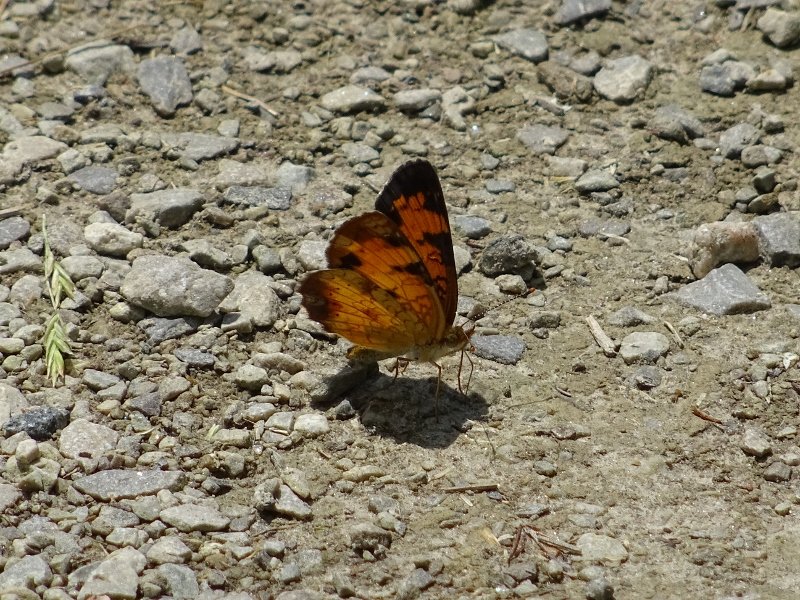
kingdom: Animalia
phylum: Arthropoda
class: Insecta
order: Lepidoptera
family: Nymphalidae
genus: Phyciodes
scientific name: Phyciodes tharos
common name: Northern Crescent
